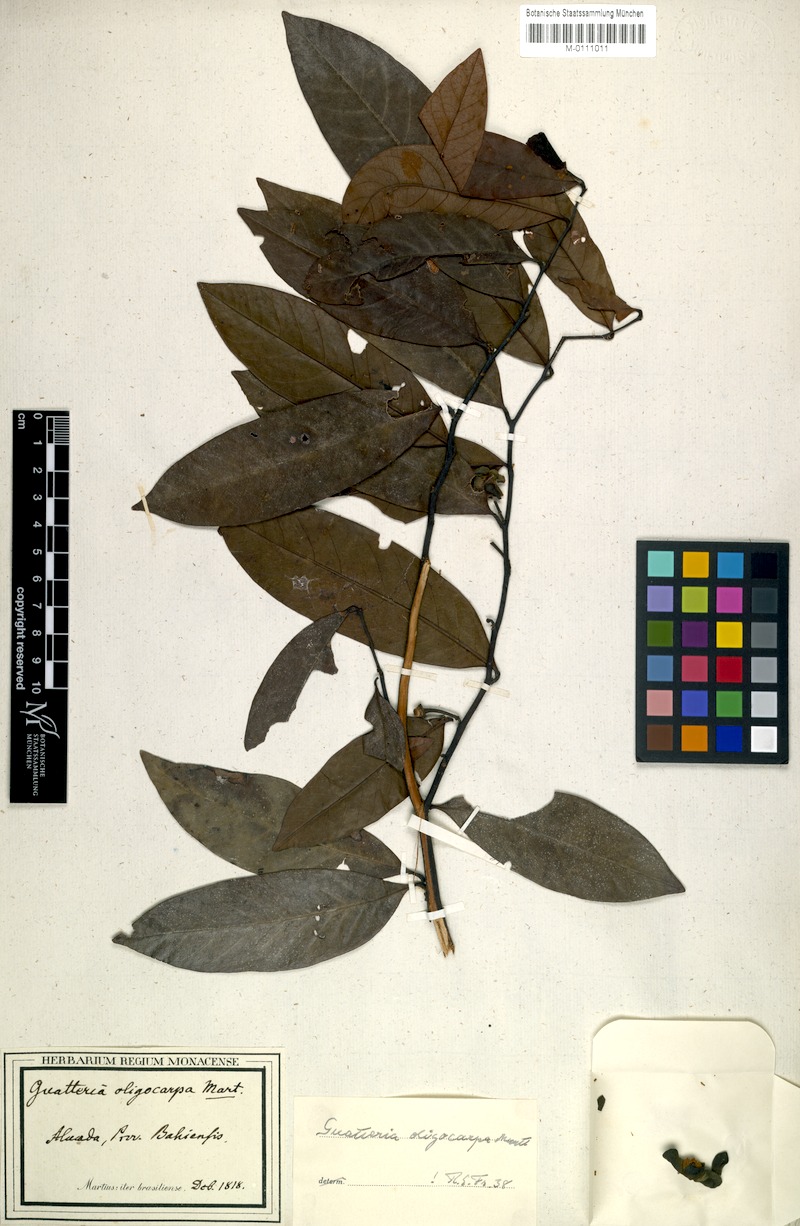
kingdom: Plantae
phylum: Tracheophyta
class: Magnoliopsida
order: Magnoliales
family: Annonaceae
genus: Guatteria
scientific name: Guatteria oligocarpa
